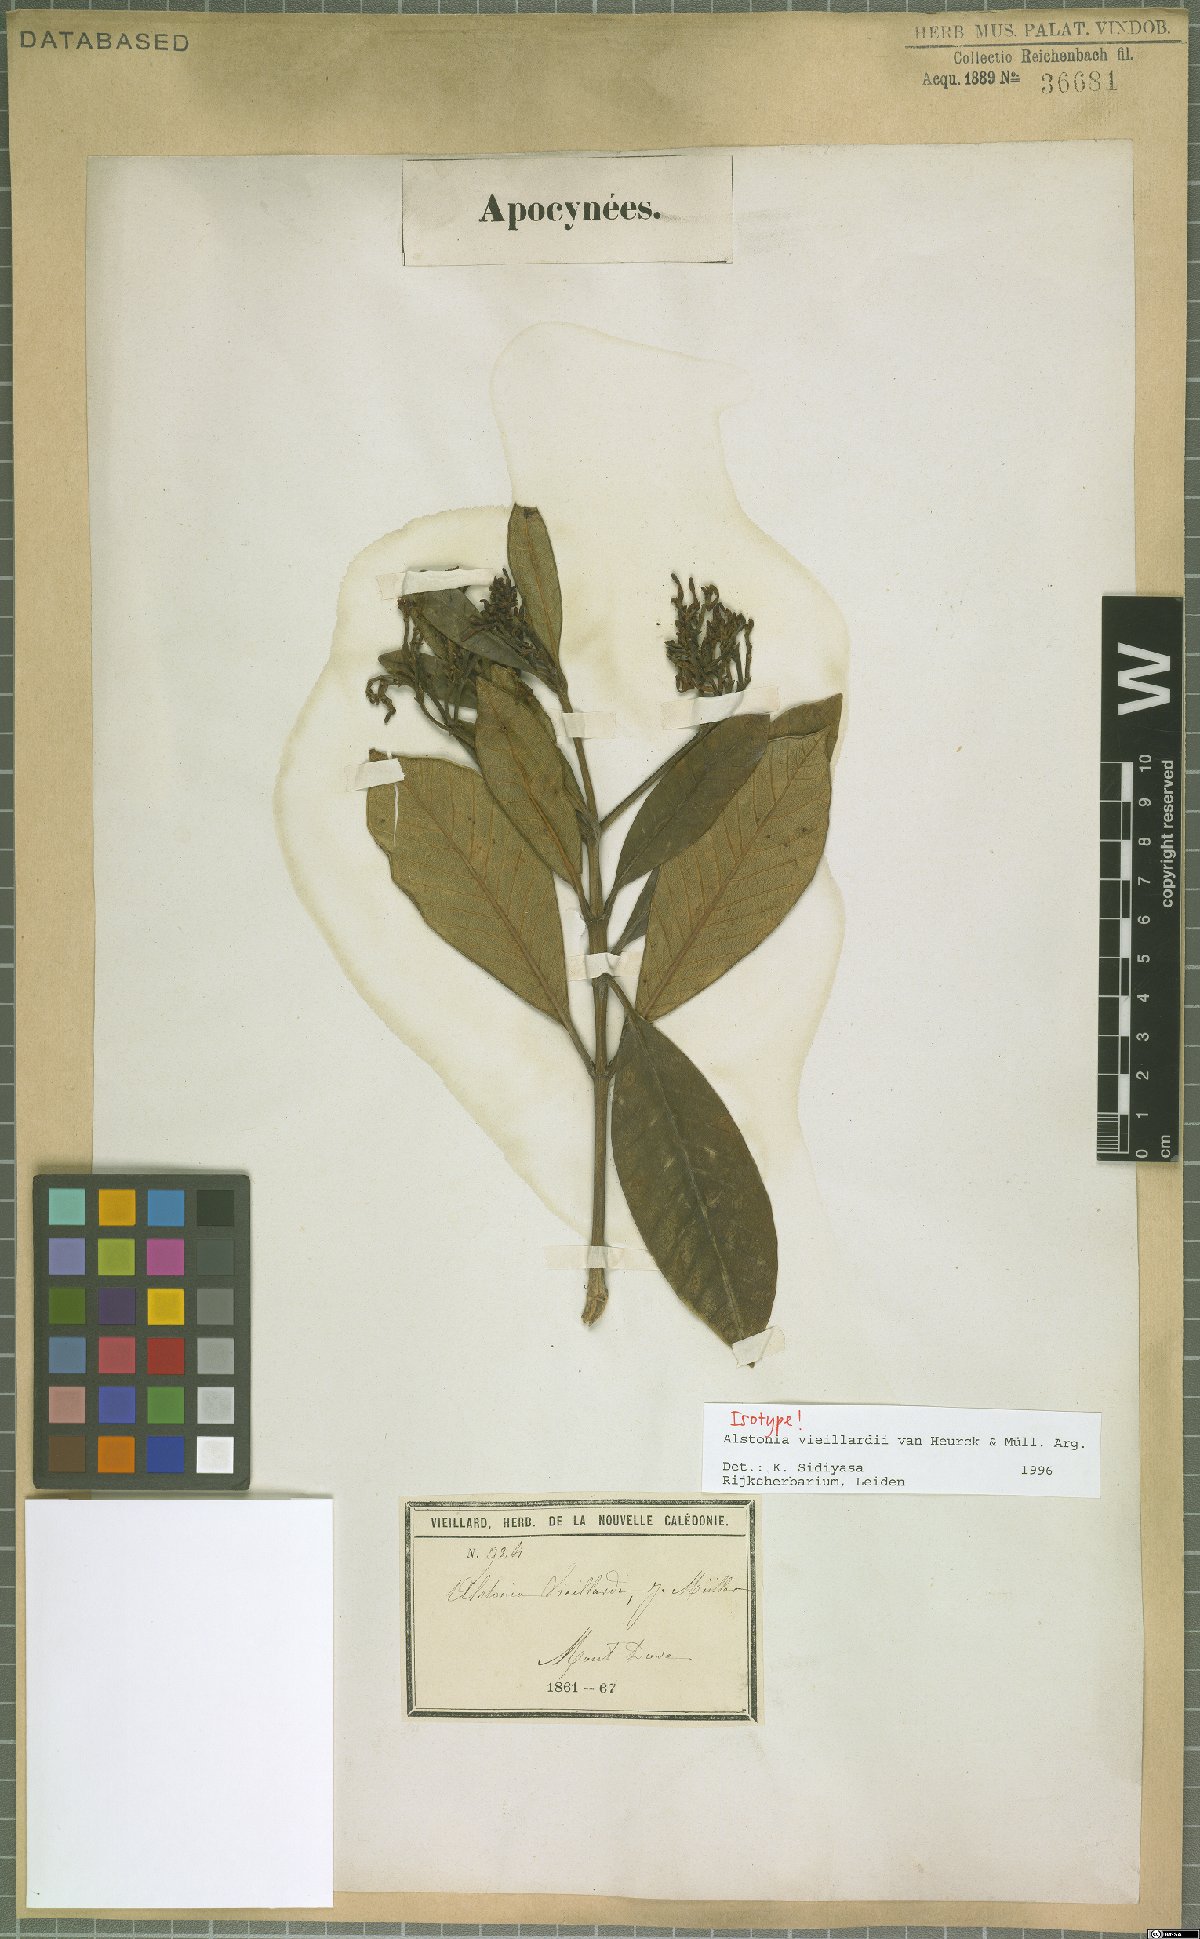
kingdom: Plantae
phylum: Tracheophyta
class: Magnoliopsida
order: Gentianales
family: Apocynaceae
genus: Alstonia
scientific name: Alstonia vieillardii
